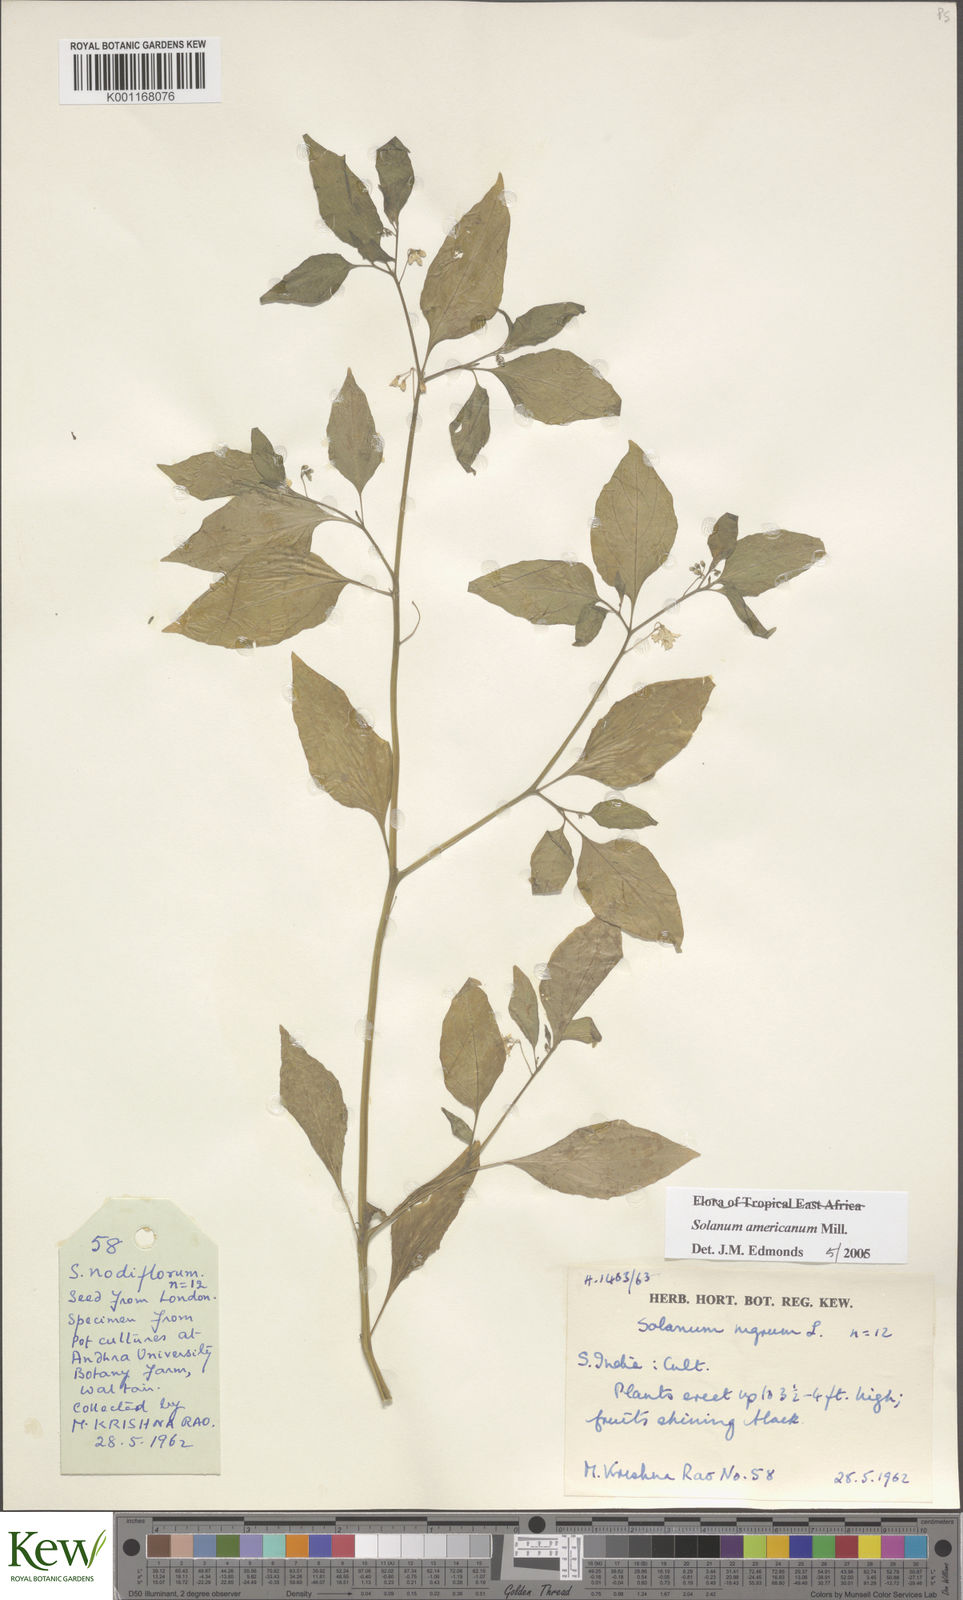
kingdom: Plantae
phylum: Tracheophyta
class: Magnoliopsida
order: Solanales
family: Solanaceae
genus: Solanum
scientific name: Solanum americanum
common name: American black nightshade
